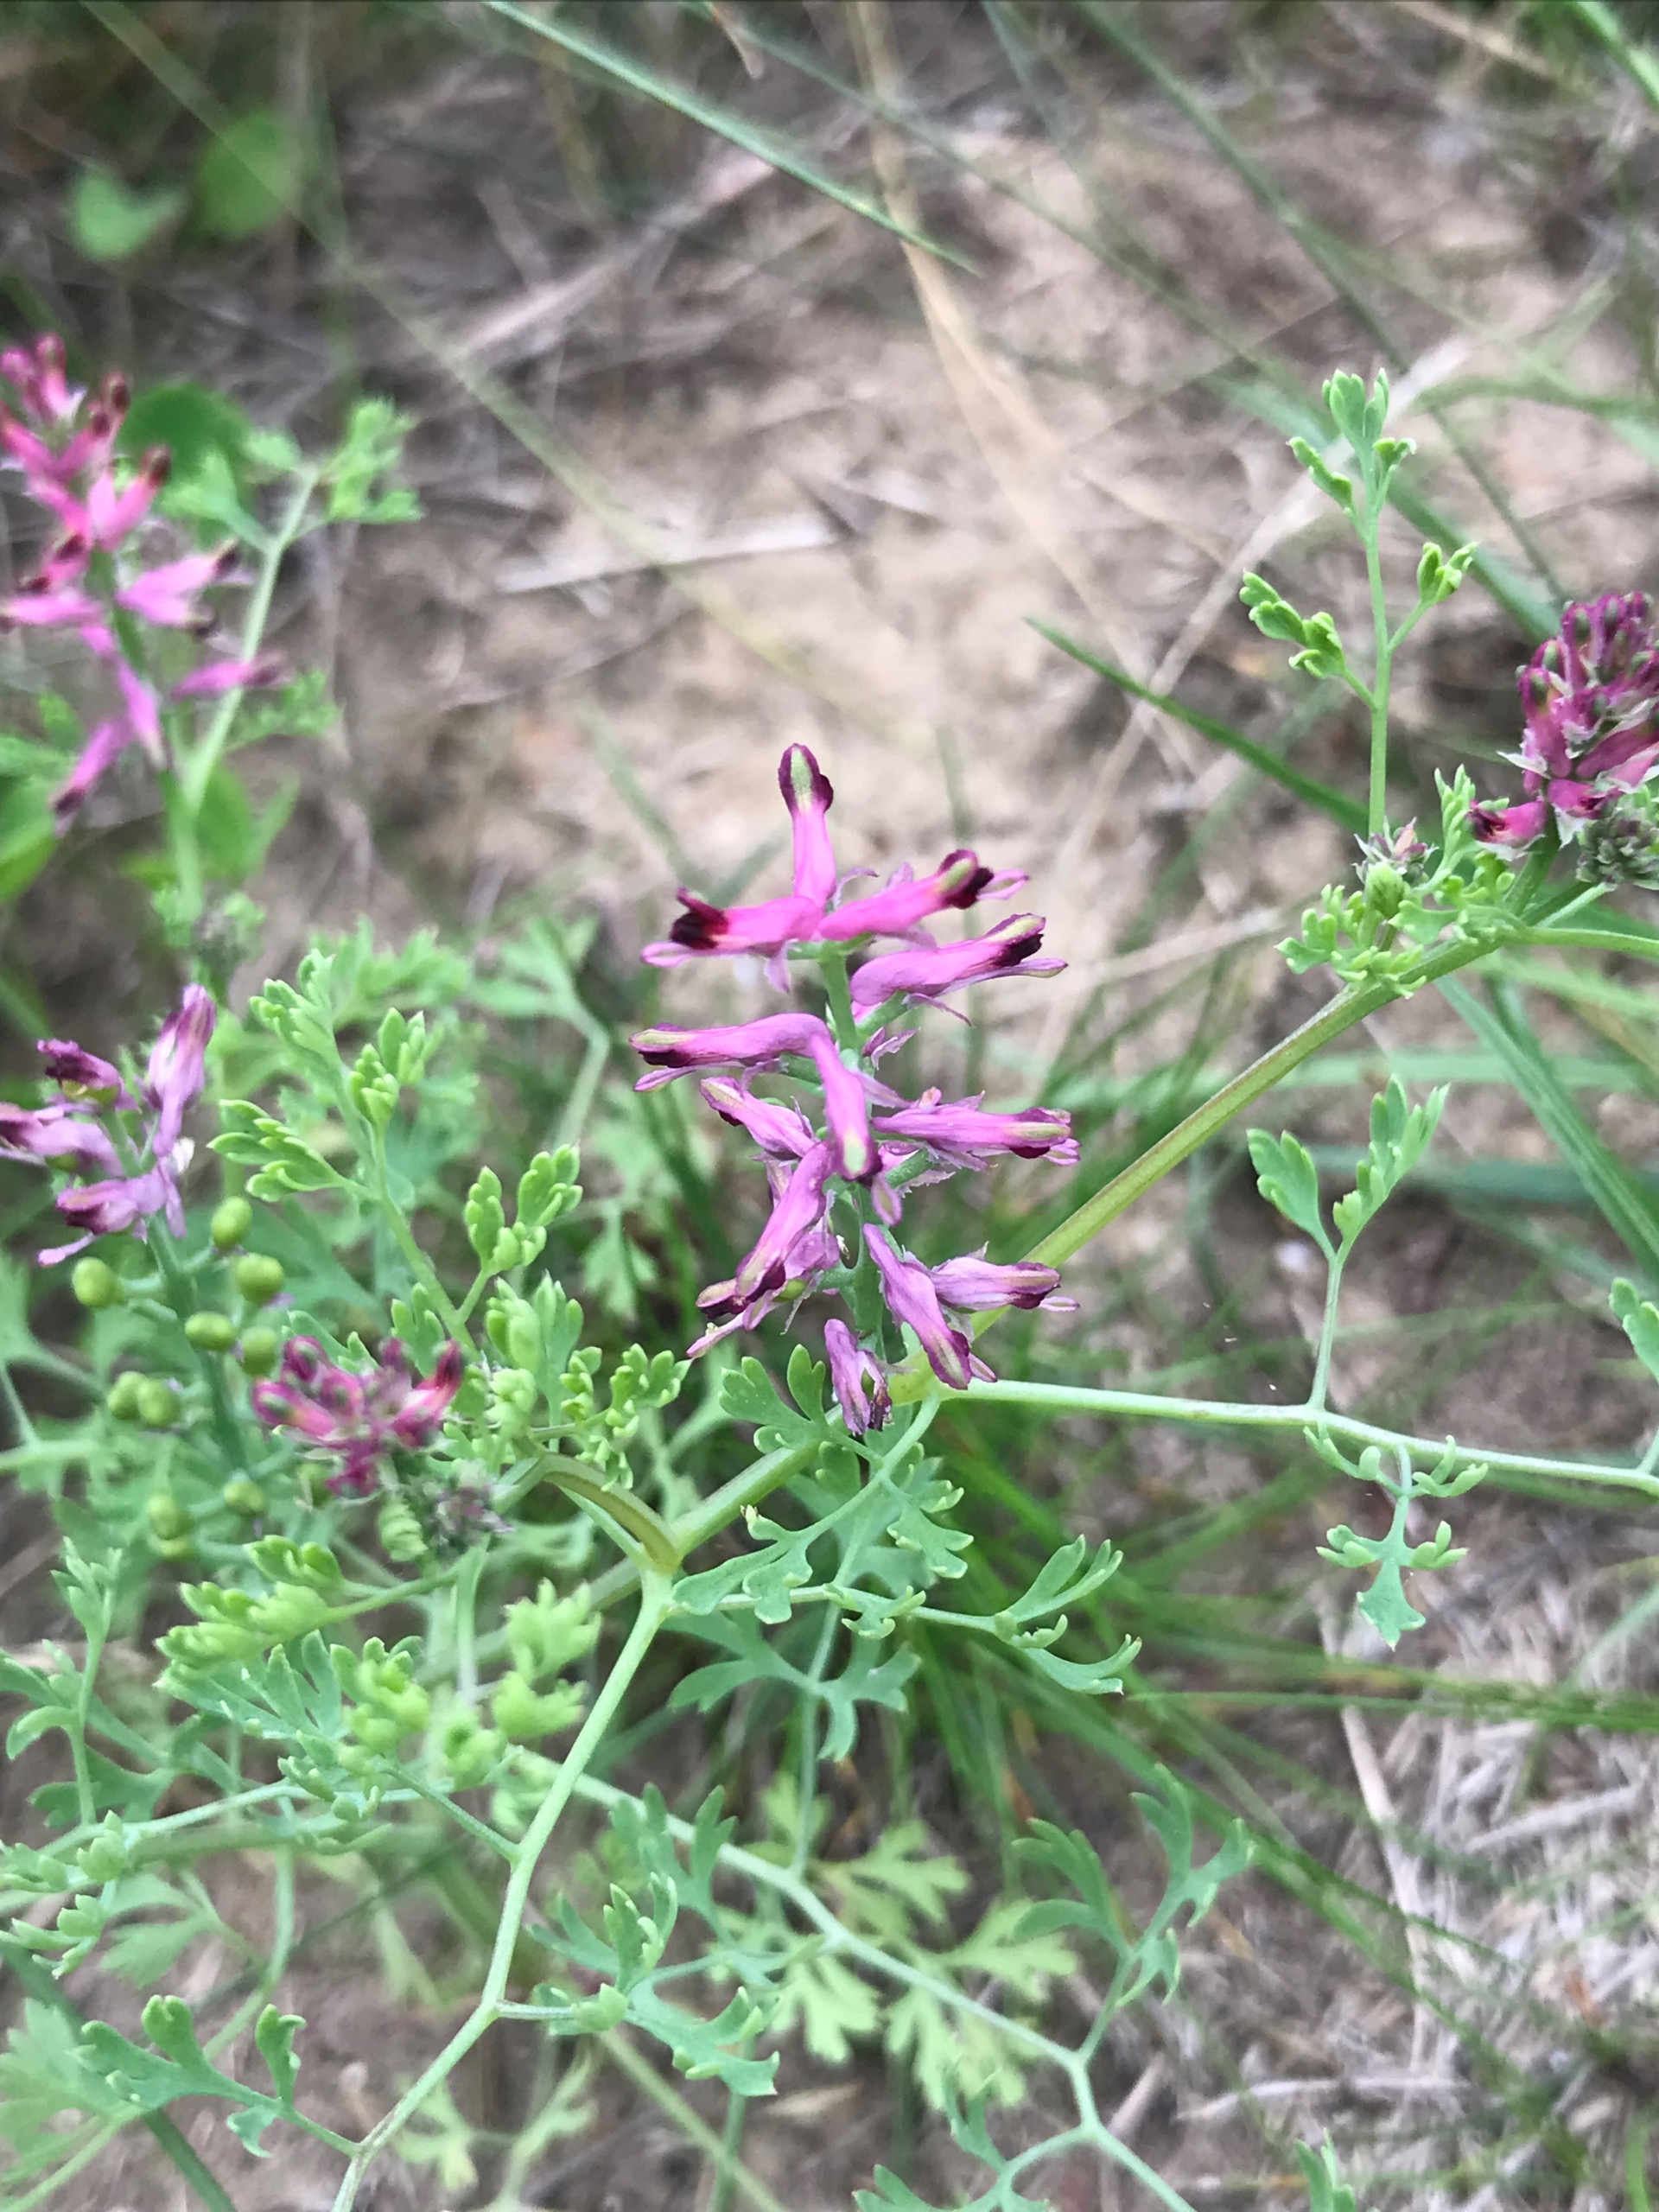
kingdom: Plantae
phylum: Tracheophyta
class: Magnoliopsida
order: Ranunculales
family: Papaveraceae
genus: Fumaria
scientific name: Fumaria officinalis
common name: Læge-jordrøg
